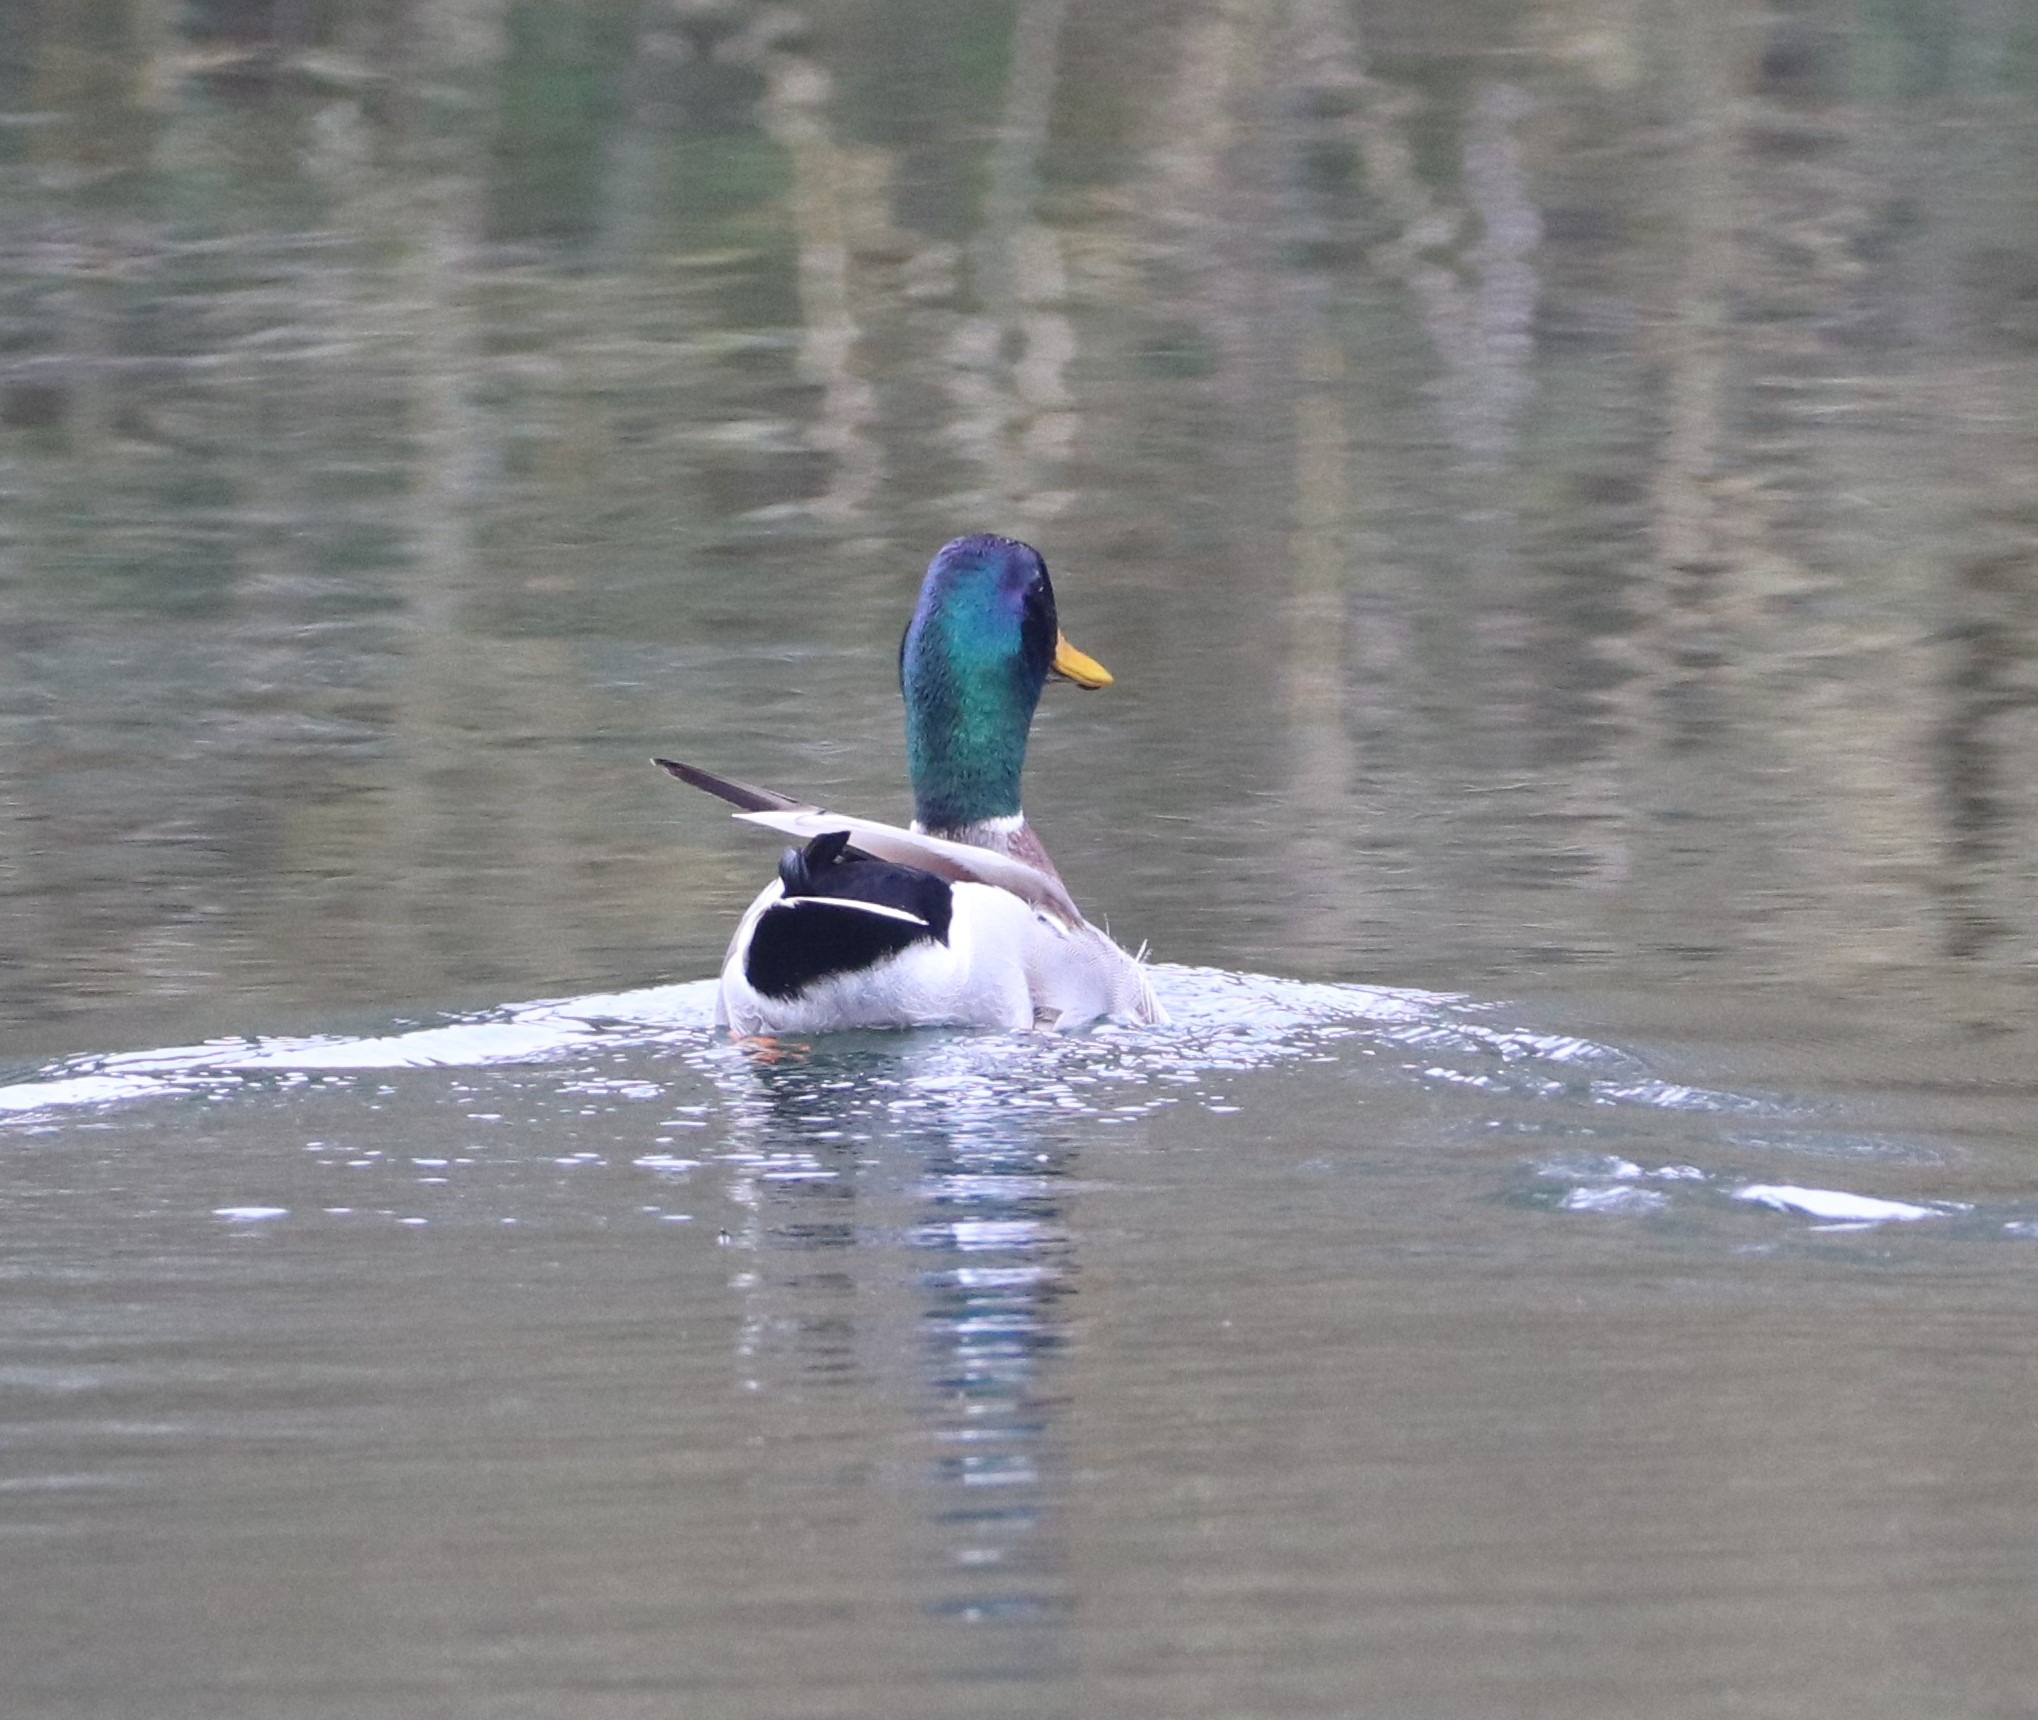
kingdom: Animalia
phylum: Chordata
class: Aves
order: Anseriformes
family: Anatidae
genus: Anas
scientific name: Anas platyrhynchos
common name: Gråand
